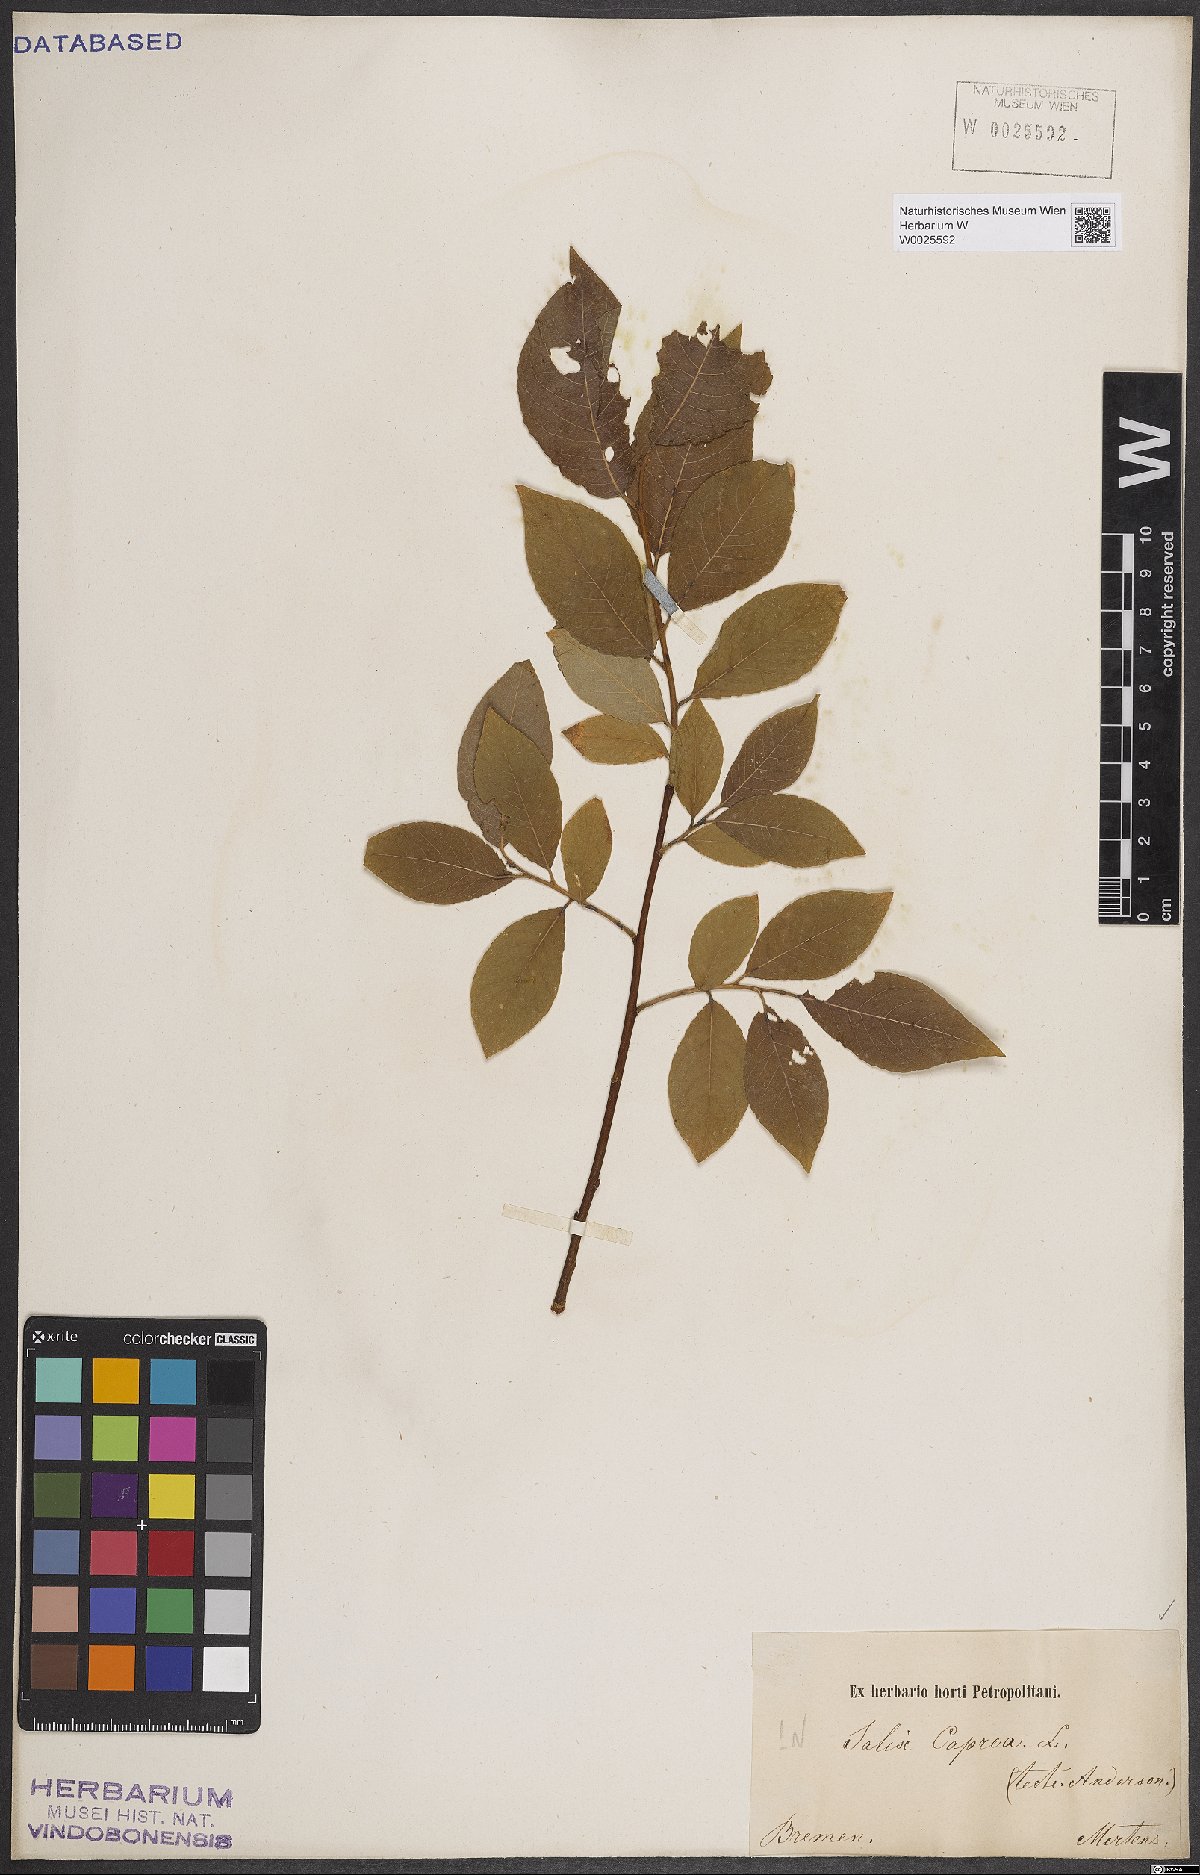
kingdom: Plantae
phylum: Tracheophyta
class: Magnoliopsida
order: Malpighiales
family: Salicaceae
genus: Salix
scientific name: Salix caprea
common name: Goat willow
